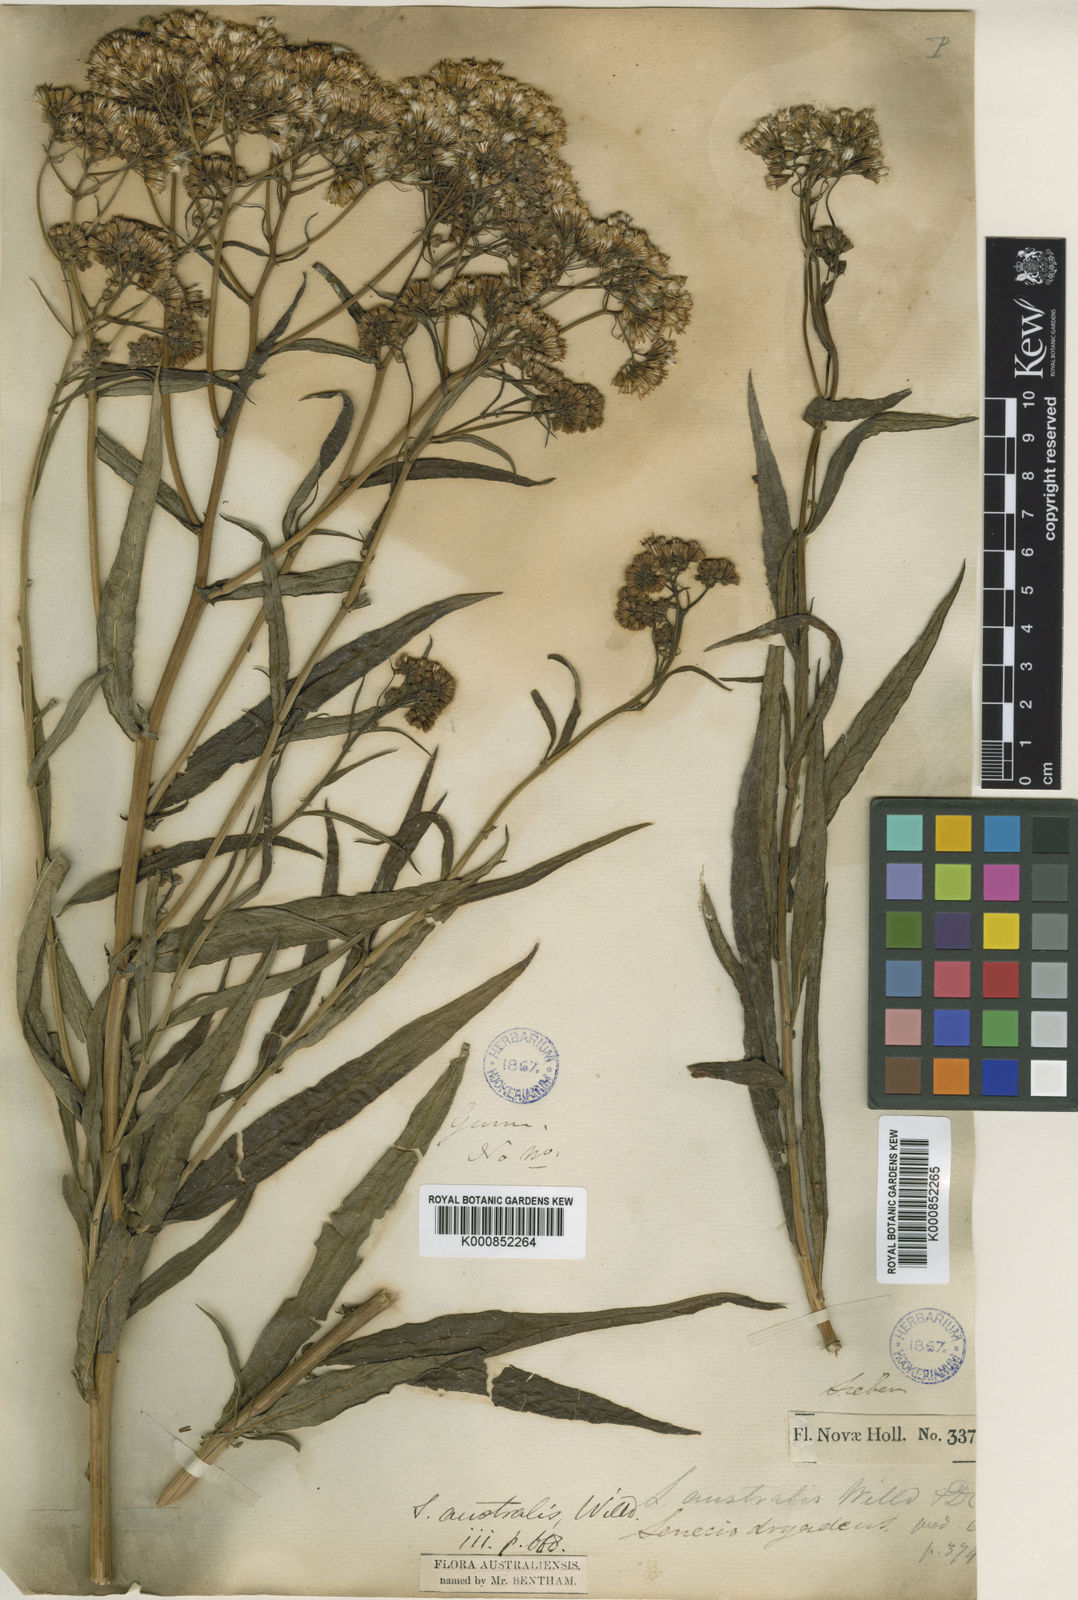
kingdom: Plantae
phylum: Tracheophyta
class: Magnoliopsida
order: Asterales
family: Asteraceae
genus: Senecio
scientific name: Senecio lautus
